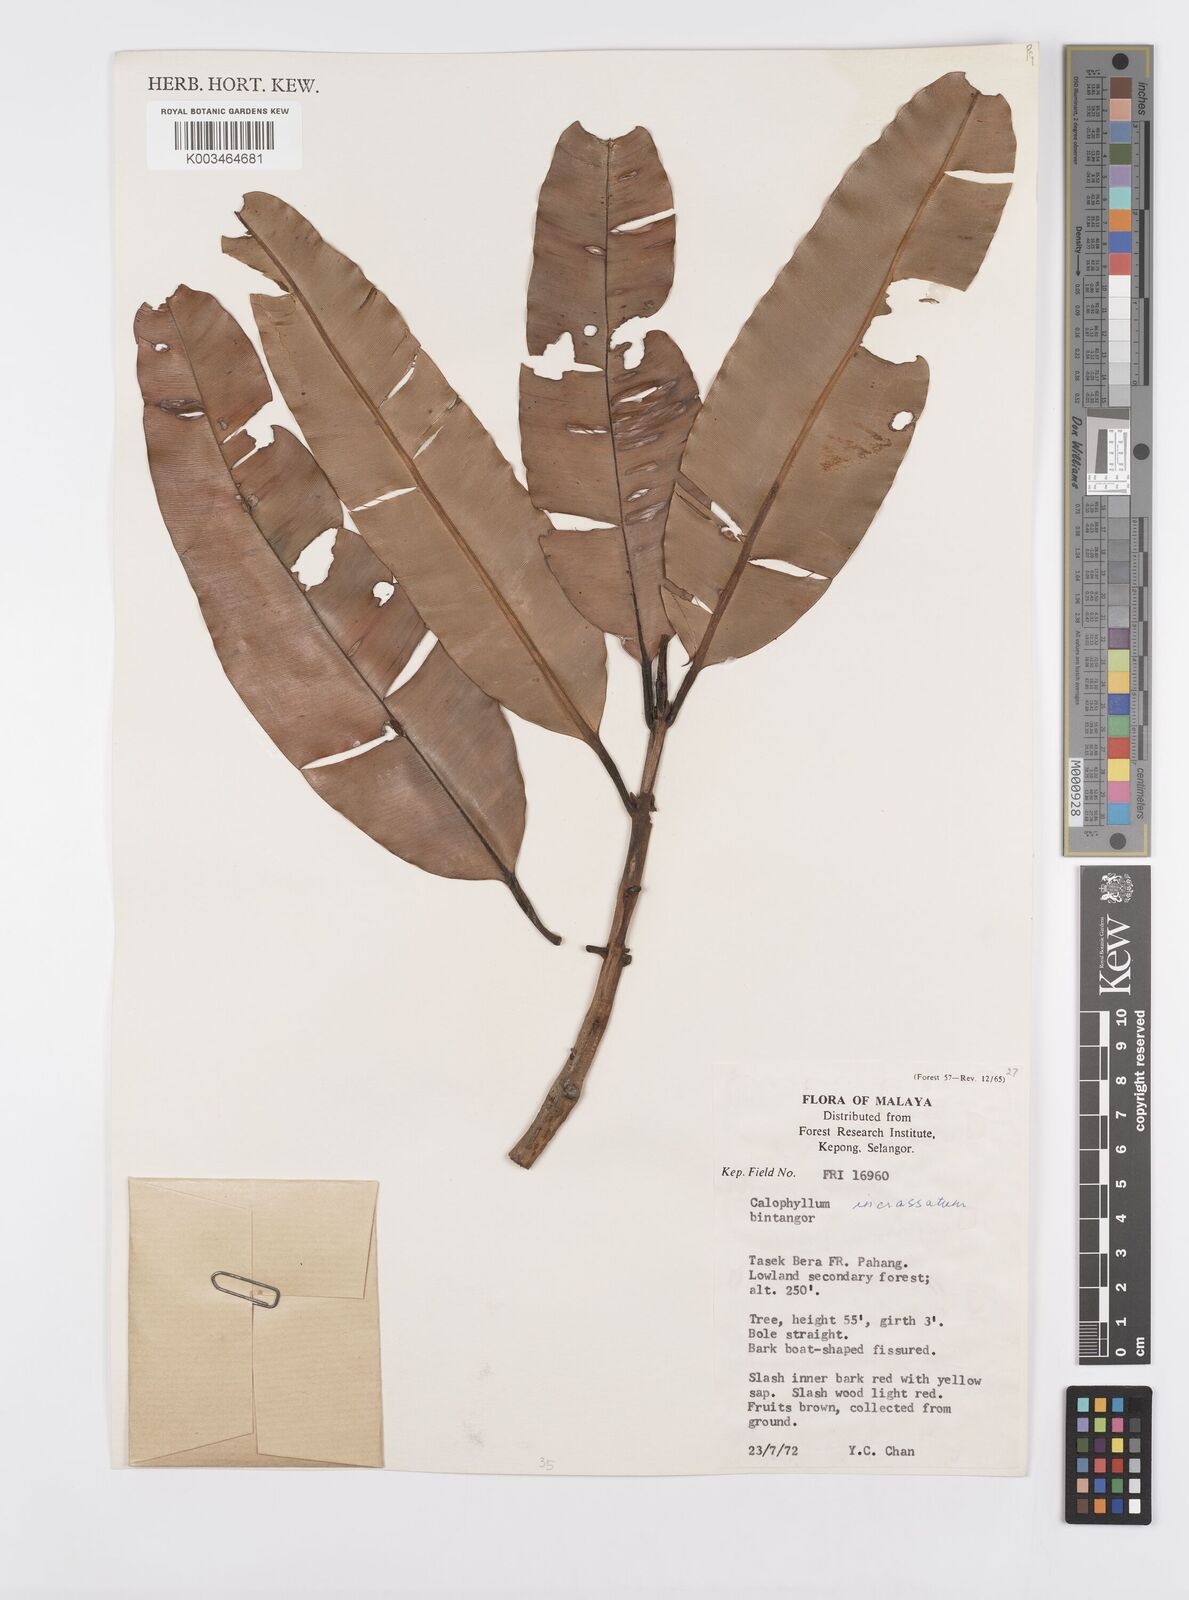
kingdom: Plantae
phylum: Tracheophyta
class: Magnoliopsida
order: Malpighiales
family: Calophyllaceae
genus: Calophyllum
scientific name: Calophyllum wallichiana
